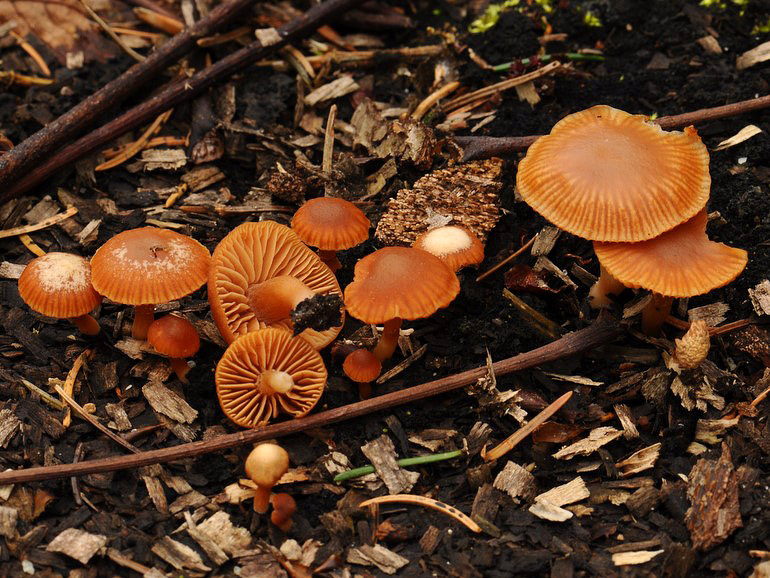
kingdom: Fungi
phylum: Basidiomycota
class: Agaricomycetes
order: Agaricales
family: Tubariaceae
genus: Tubaria
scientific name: Tubaria furfuracea
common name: kliddet fnughat
